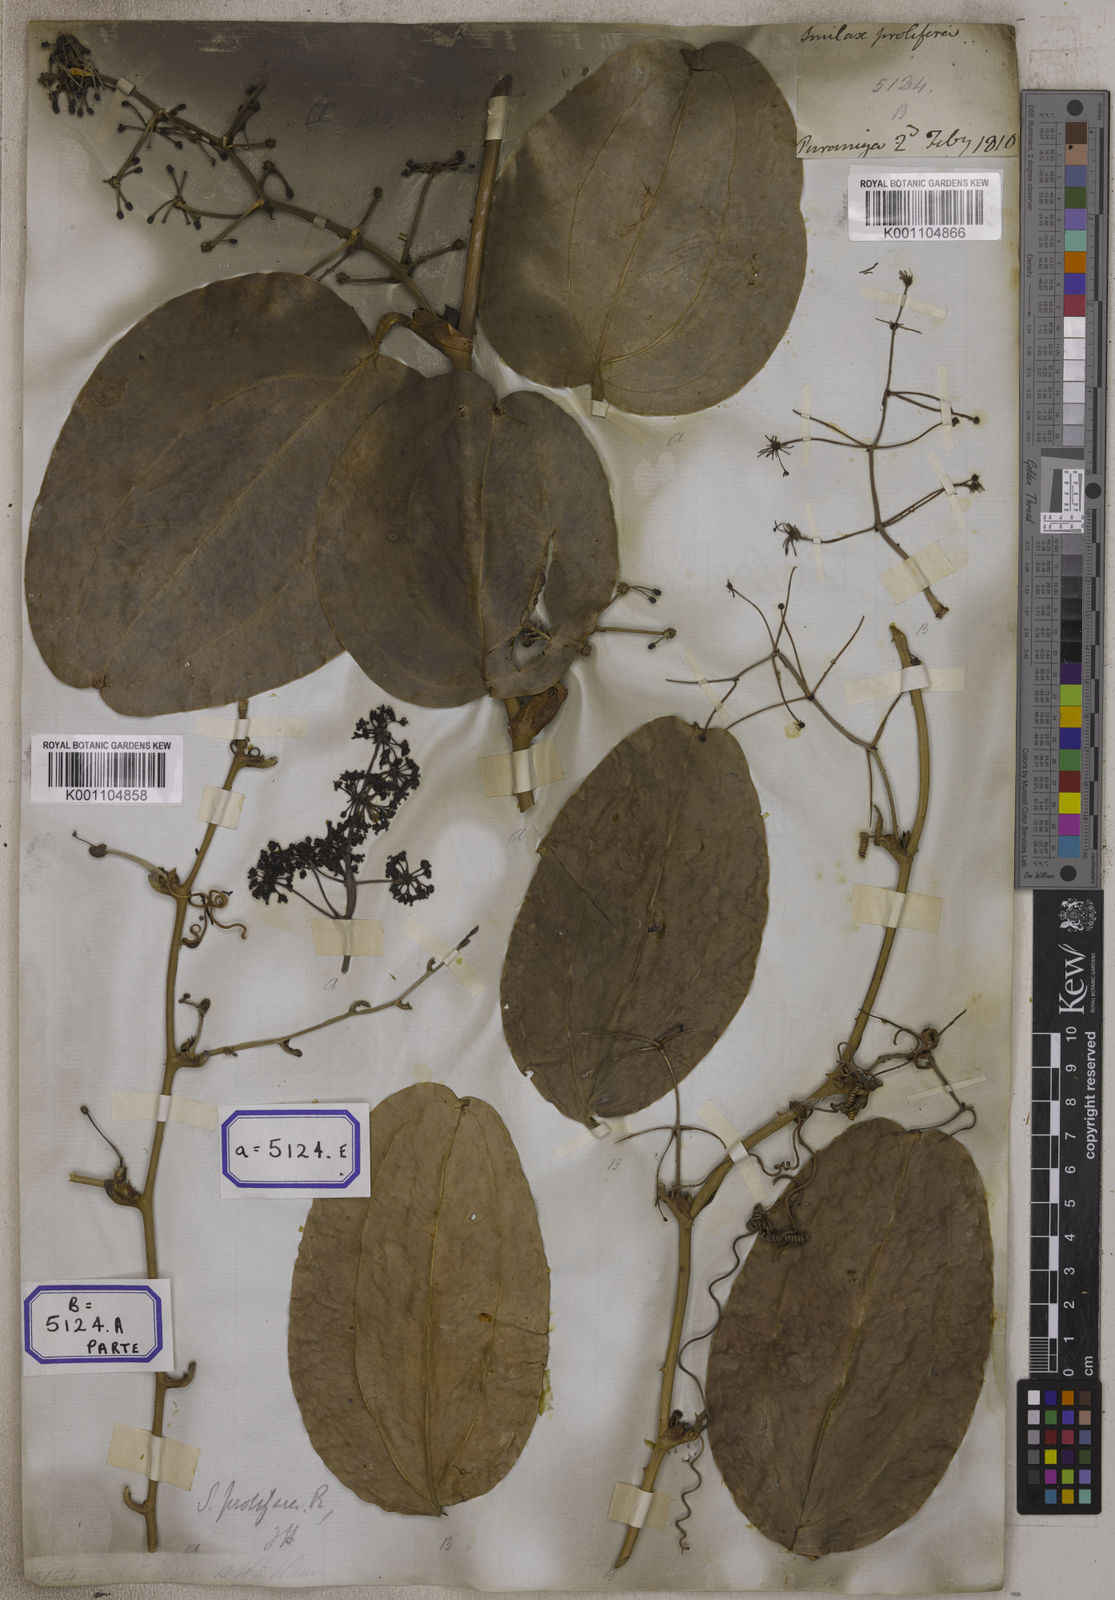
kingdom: Plantae
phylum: Tracheophyta
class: Liliopsida
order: Liliales
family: Smilacaceae
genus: Smilax
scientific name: Smilax prolifera
